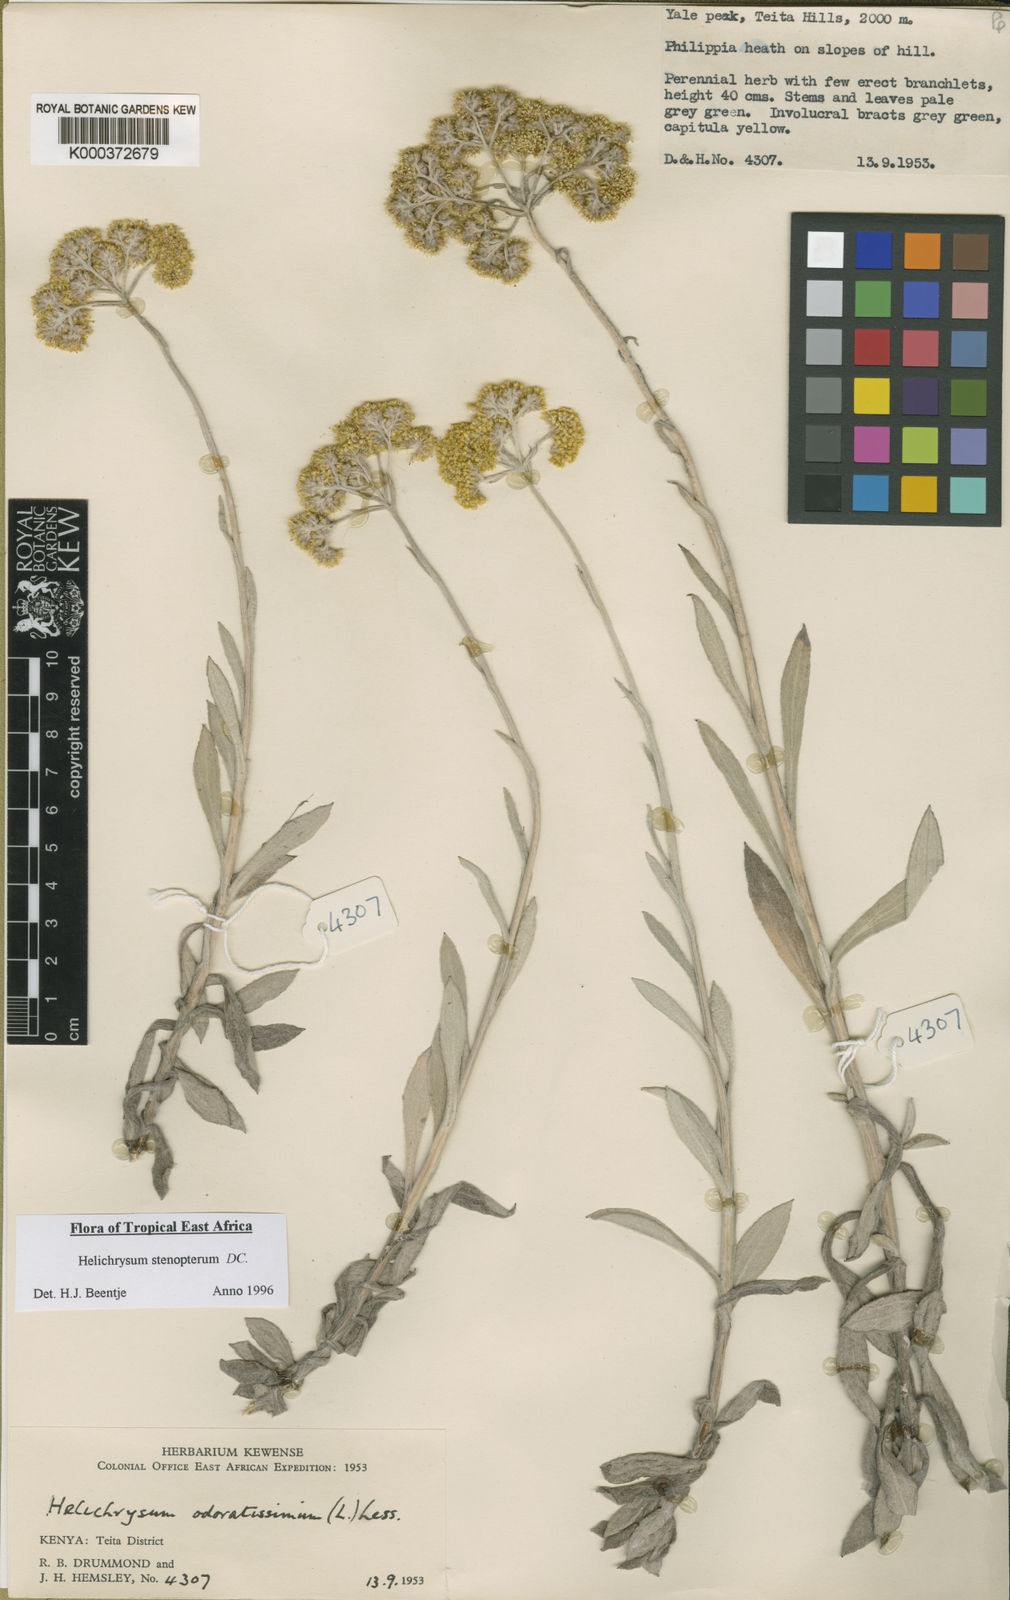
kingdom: Plantae
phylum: Tracheophyta
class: Magnoliopsida
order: Asterales
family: Asteraceae
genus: Helichrysum
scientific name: Helichrysum stenopterum
